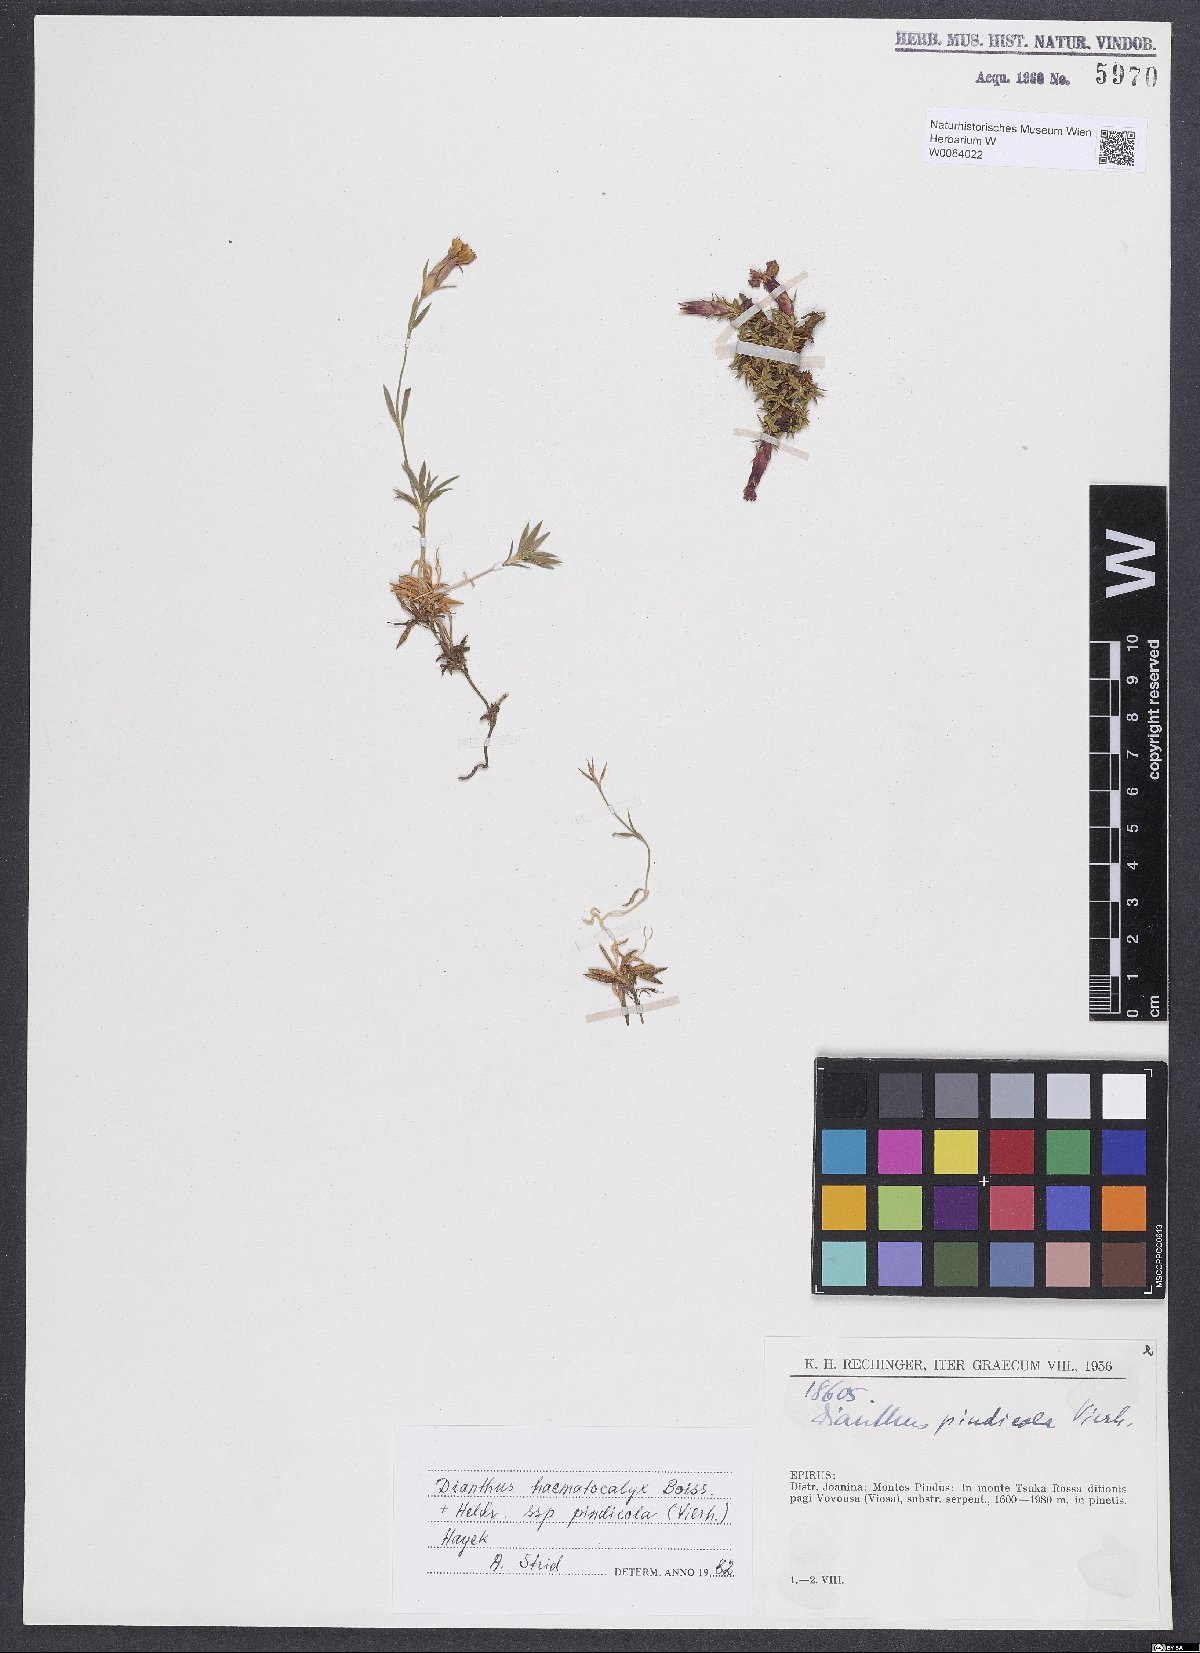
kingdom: Plantae
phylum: Tracheophyta
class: Magnoliopsida
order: Caryophyllales
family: Caryophyllaceae
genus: Dianthus
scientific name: Dianthus haematocalyx
